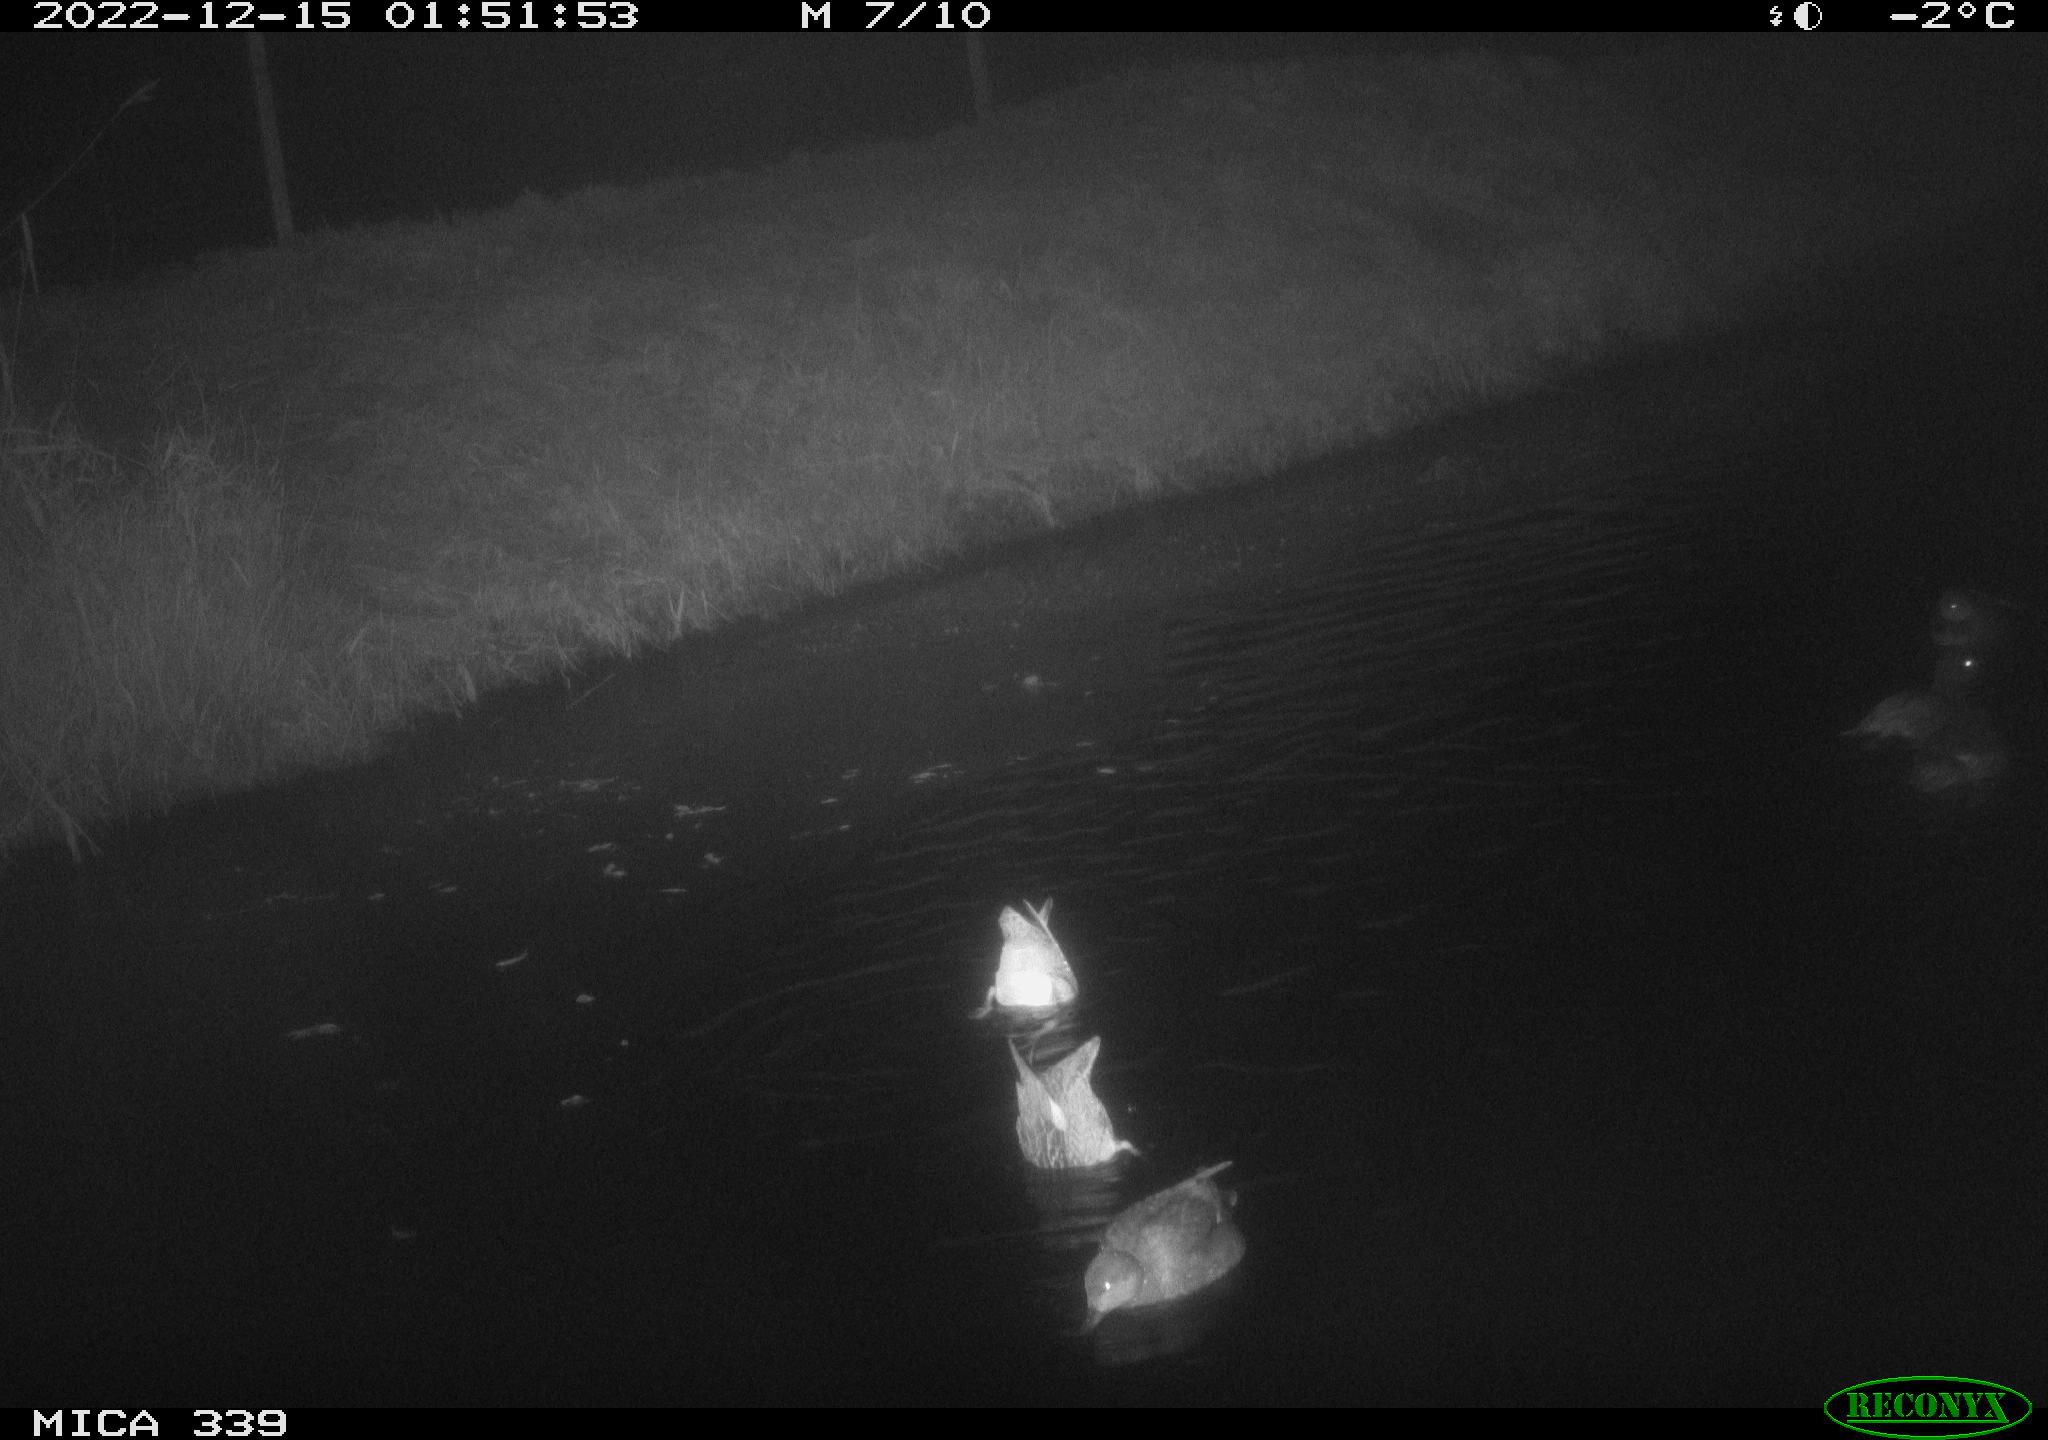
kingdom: Animalia
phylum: Chordata
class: Aves
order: Anseriformes
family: Anatidae
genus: Anas
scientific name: Anas
